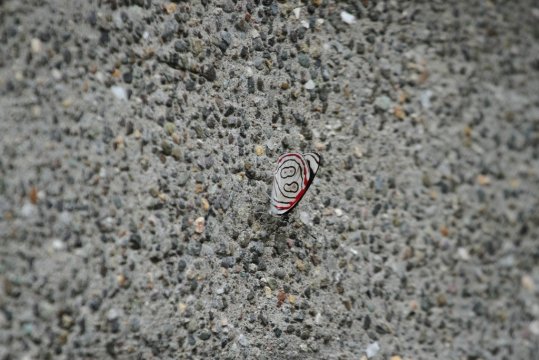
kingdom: Animalia
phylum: Arthropoda
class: Insecta
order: Lepidoptera
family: Nymphalidae
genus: Diaethria
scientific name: Diaethria astala
